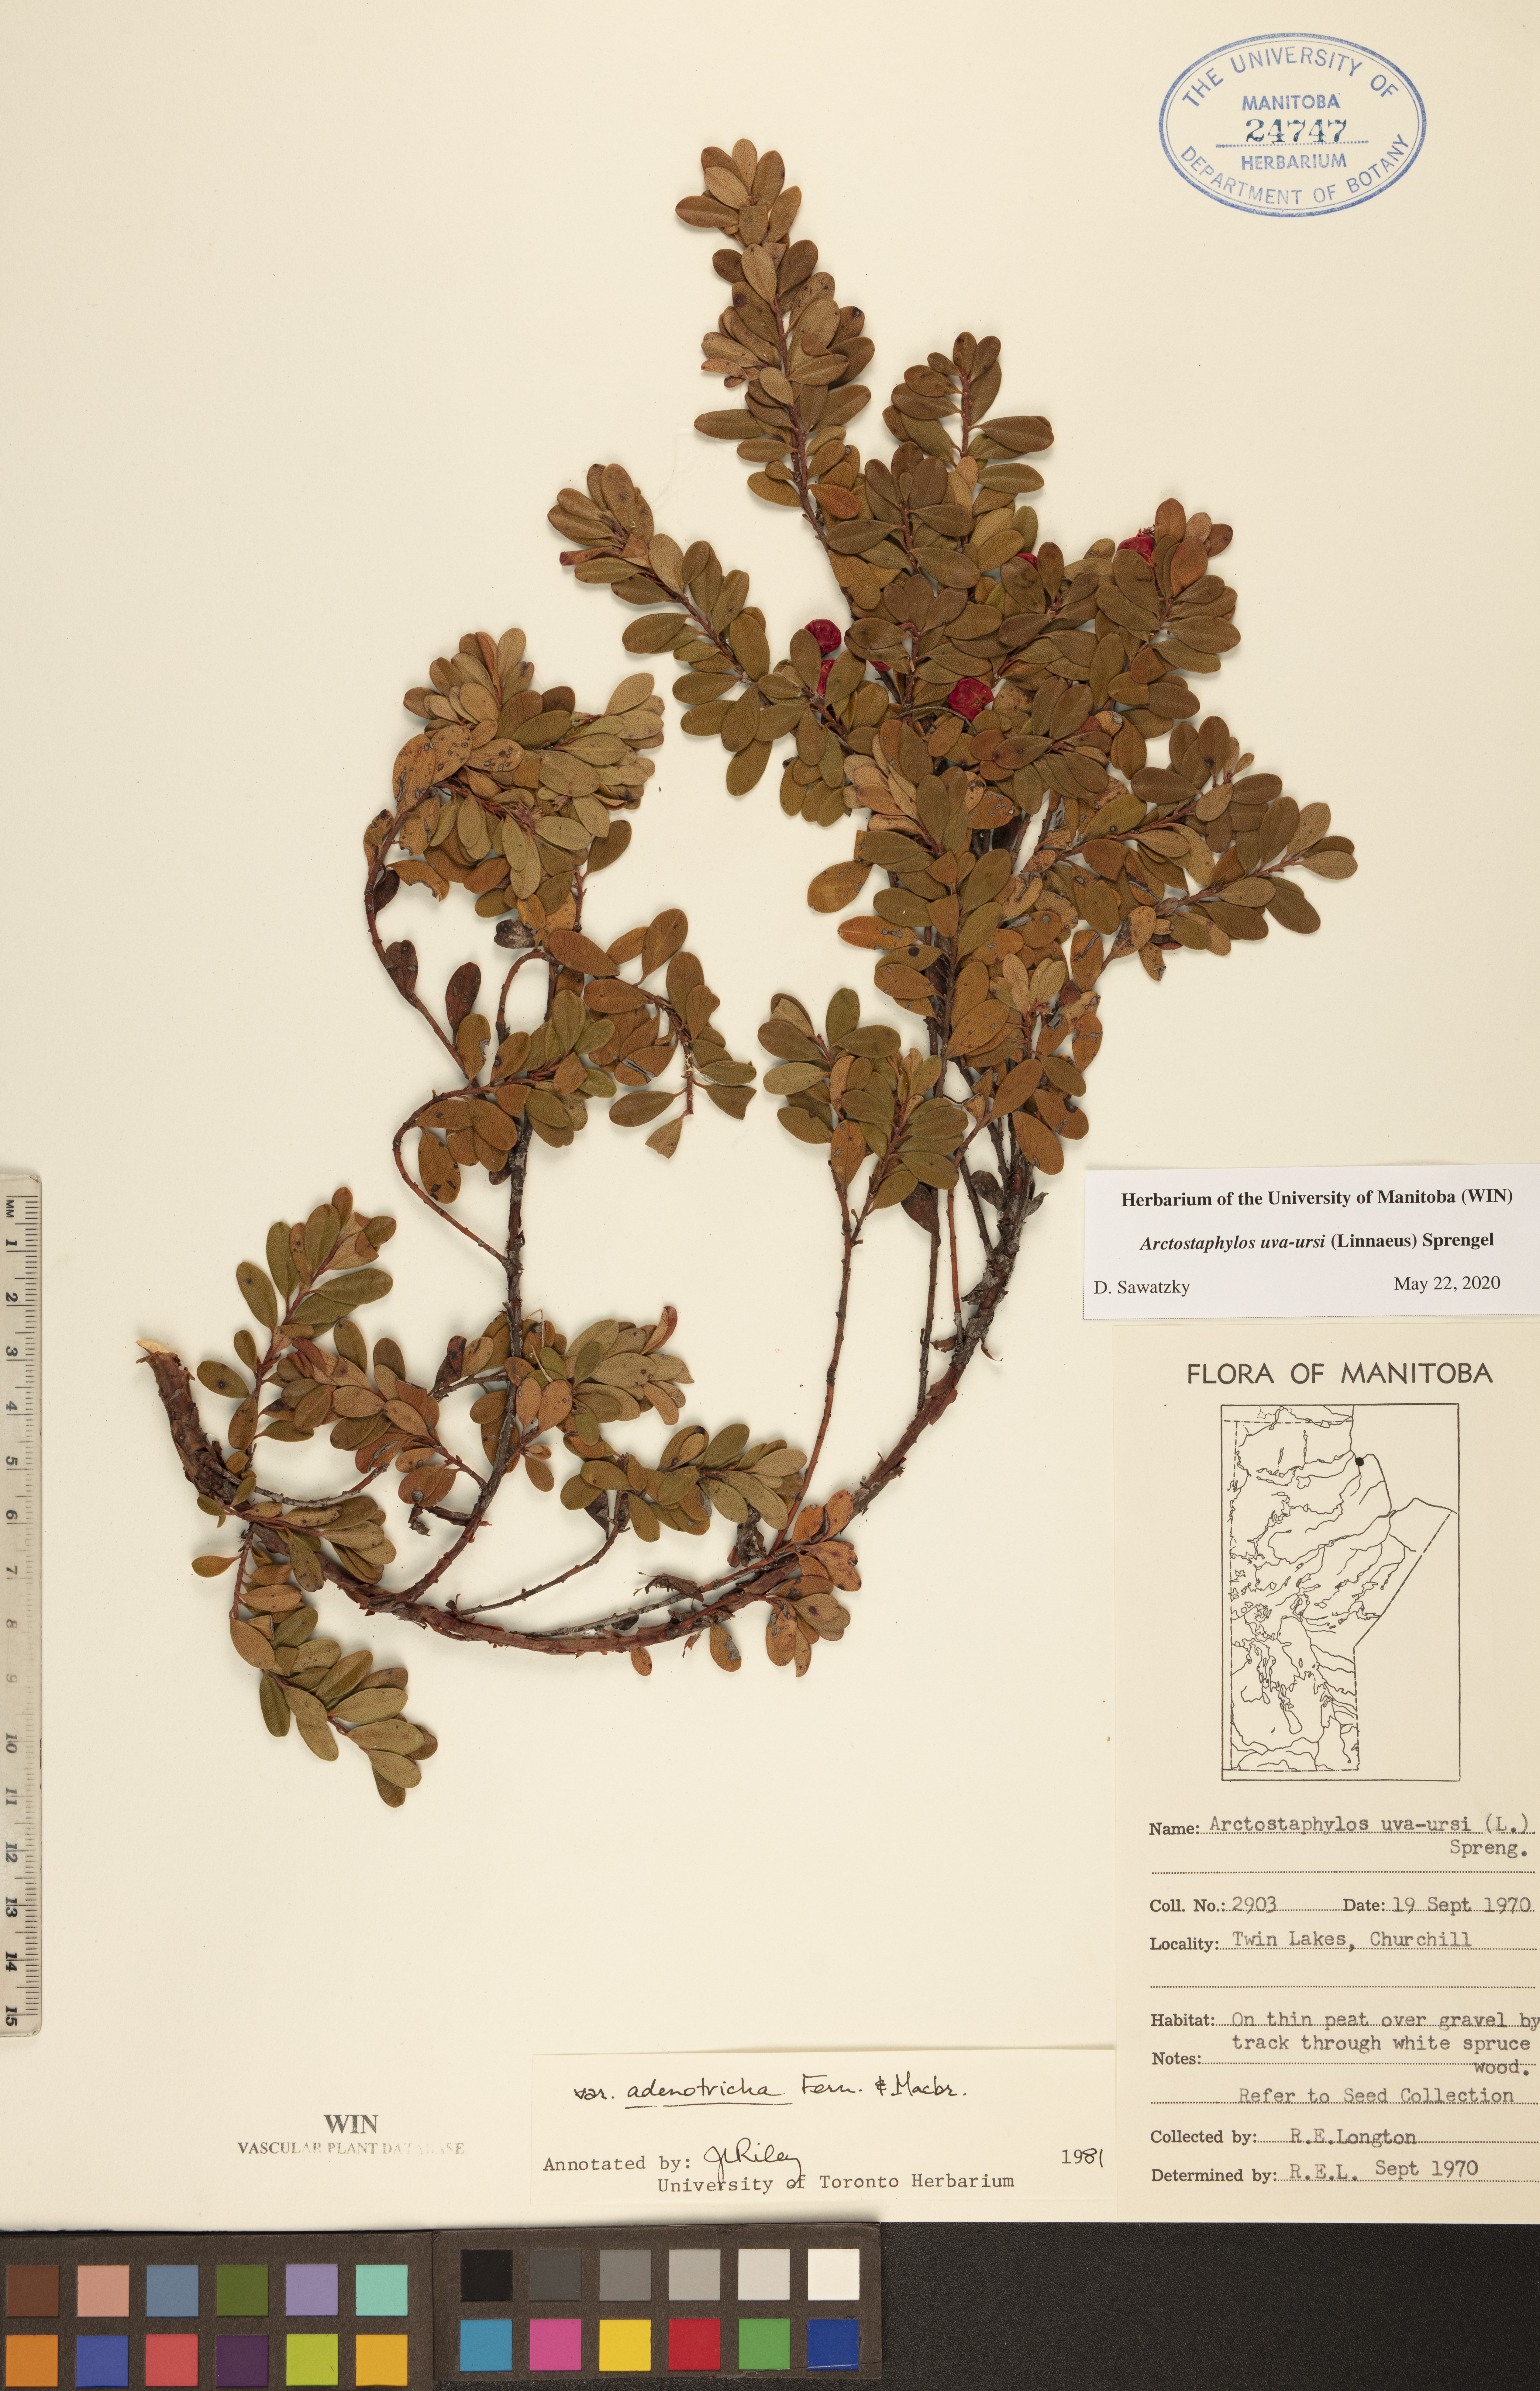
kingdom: Plantae
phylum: Tracheophyta
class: Magnoliopsida
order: Ericales
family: Ericaceae
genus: Arctostaphylos
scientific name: Arctostaphylos uva-ursi
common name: Bearberry
